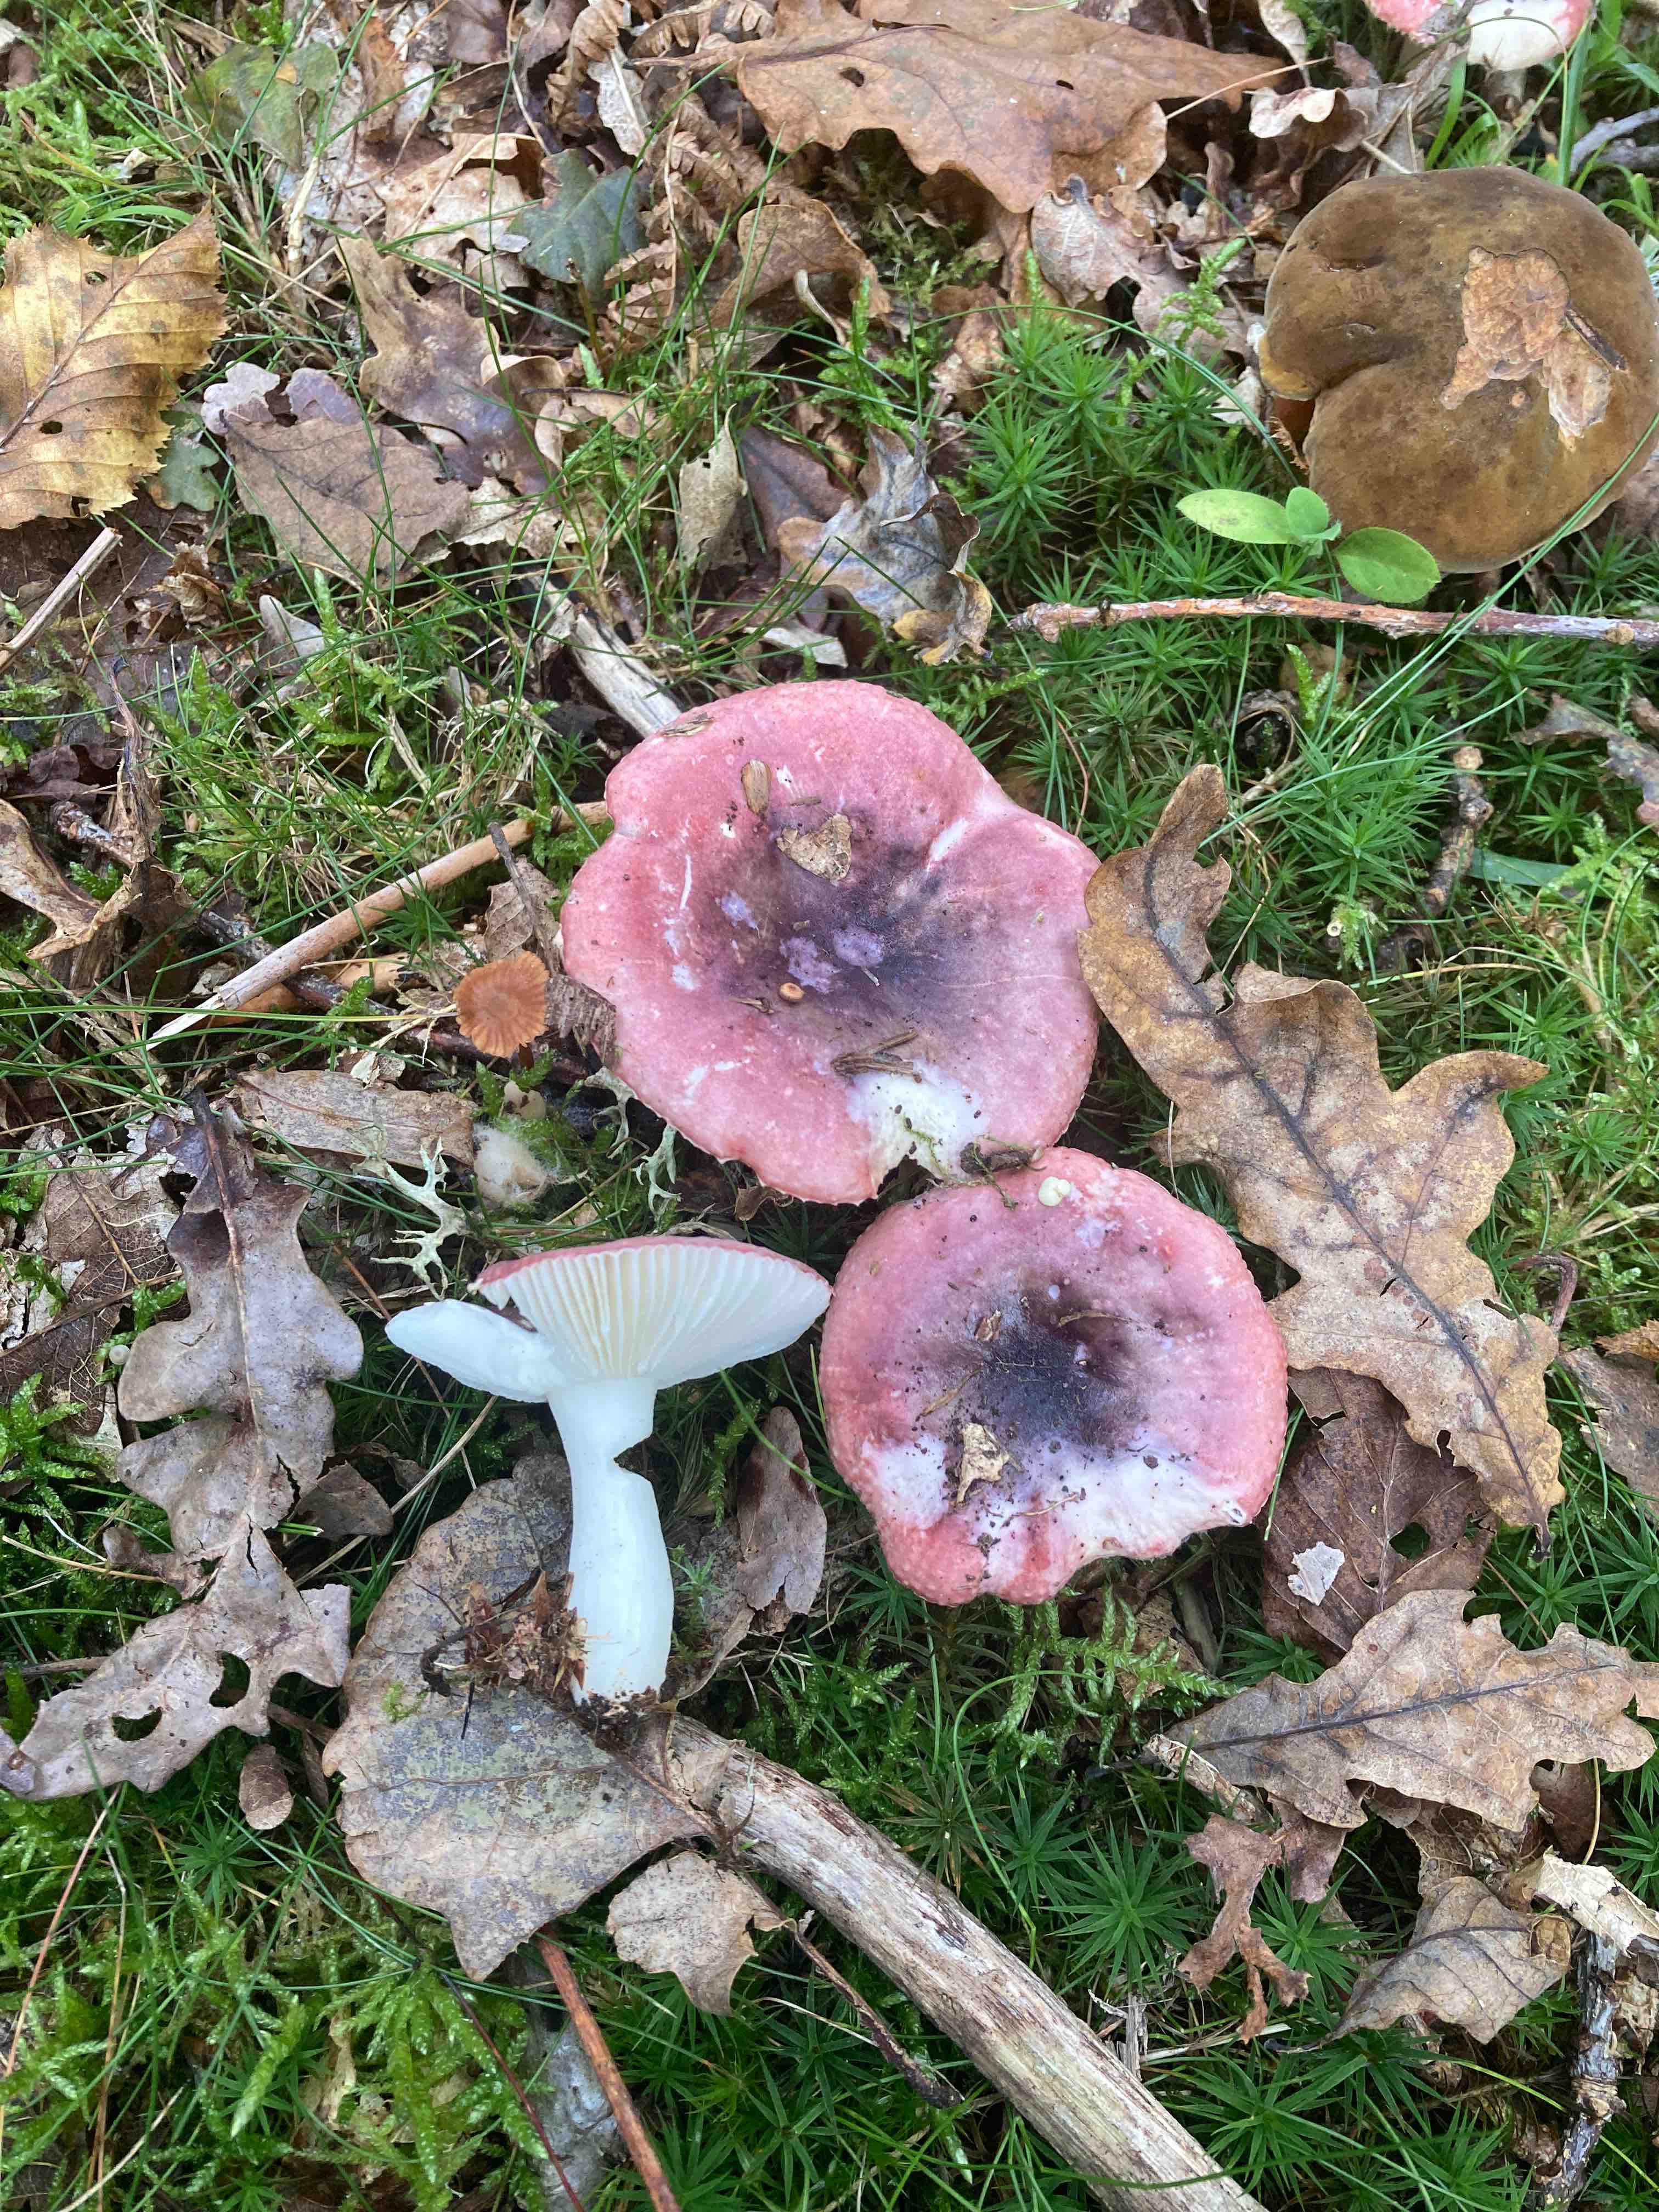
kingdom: Fungi
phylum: Basidiomycota
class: Agaricomycetes
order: Russulales
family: Russulaceae
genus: Russula
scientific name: Russula fragilis
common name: savbladet skørhat
